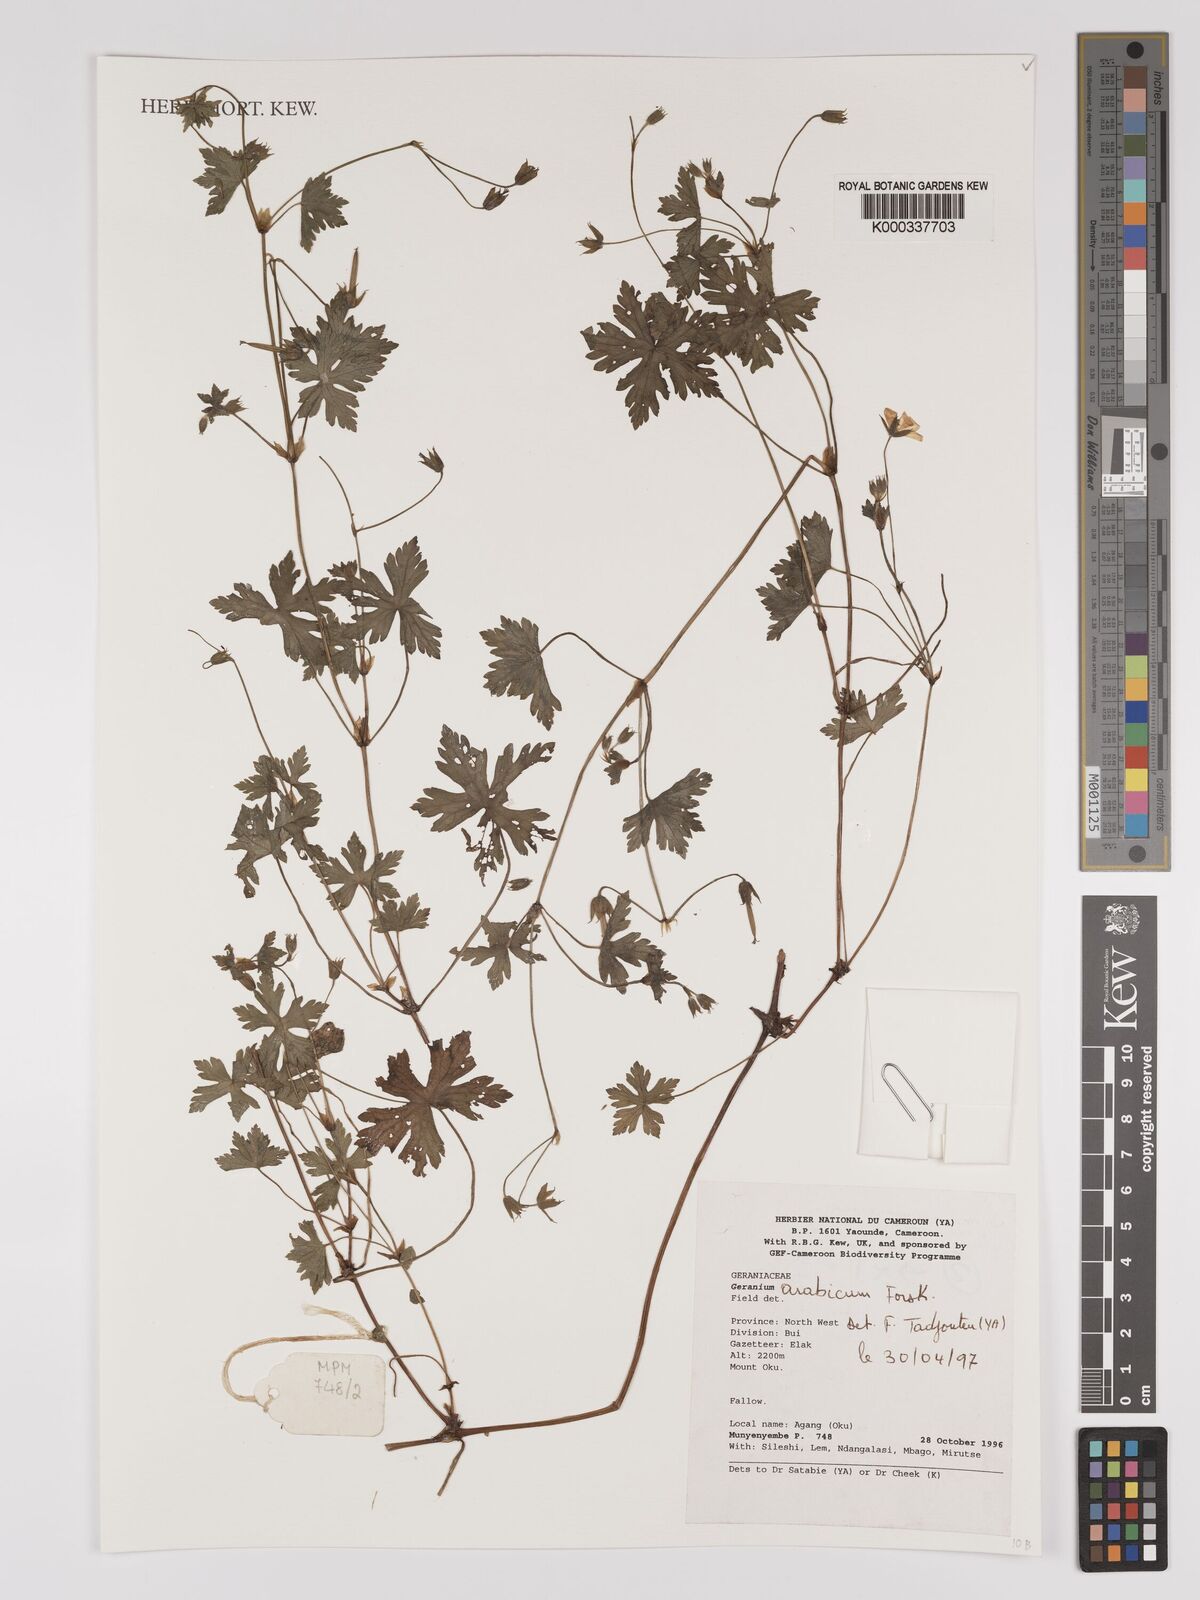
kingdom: Plantae
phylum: Tracheophyta
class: Magnoliopsida
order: Geraniales
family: Geraniaceae
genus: Geranium
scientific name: Geranium arabicum
